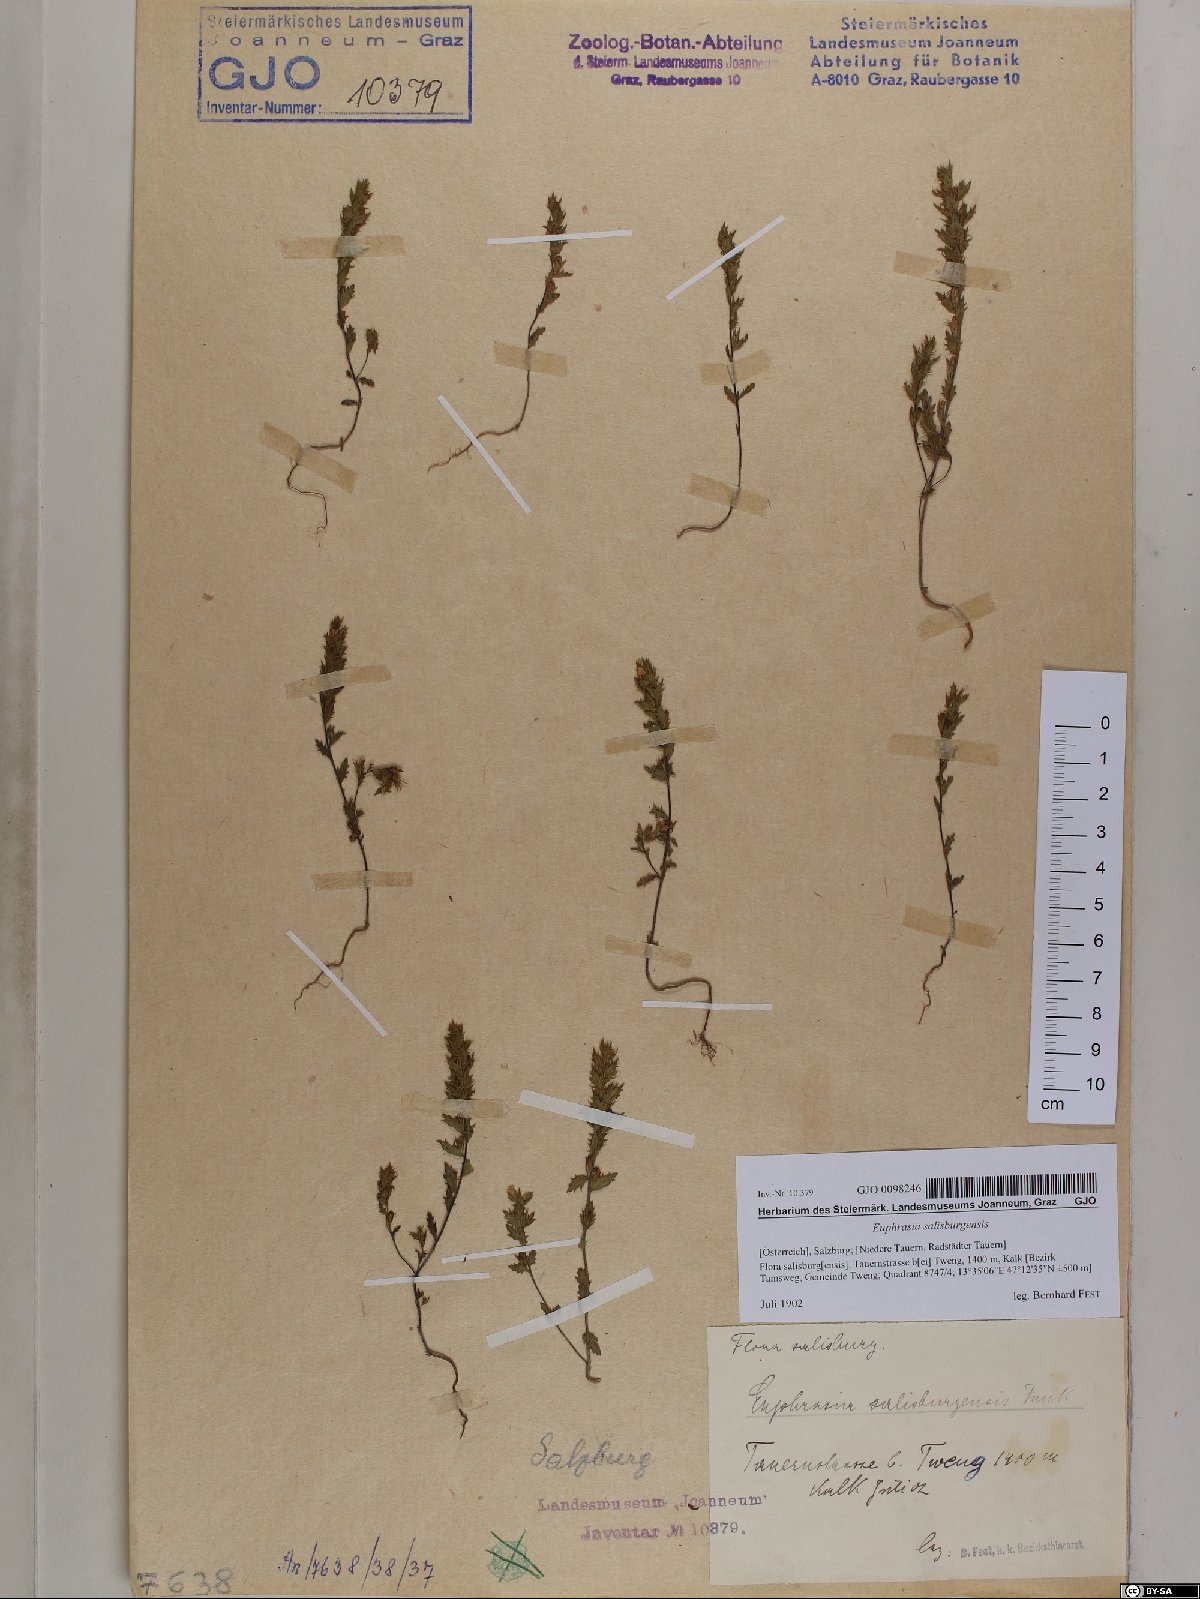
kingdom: Plantae
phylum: Tracheophyta
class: Magnoliopsida
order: Lamiales
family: Orobanchaceae
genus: Euphrasia
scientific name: Euphrasia salisburgensis
